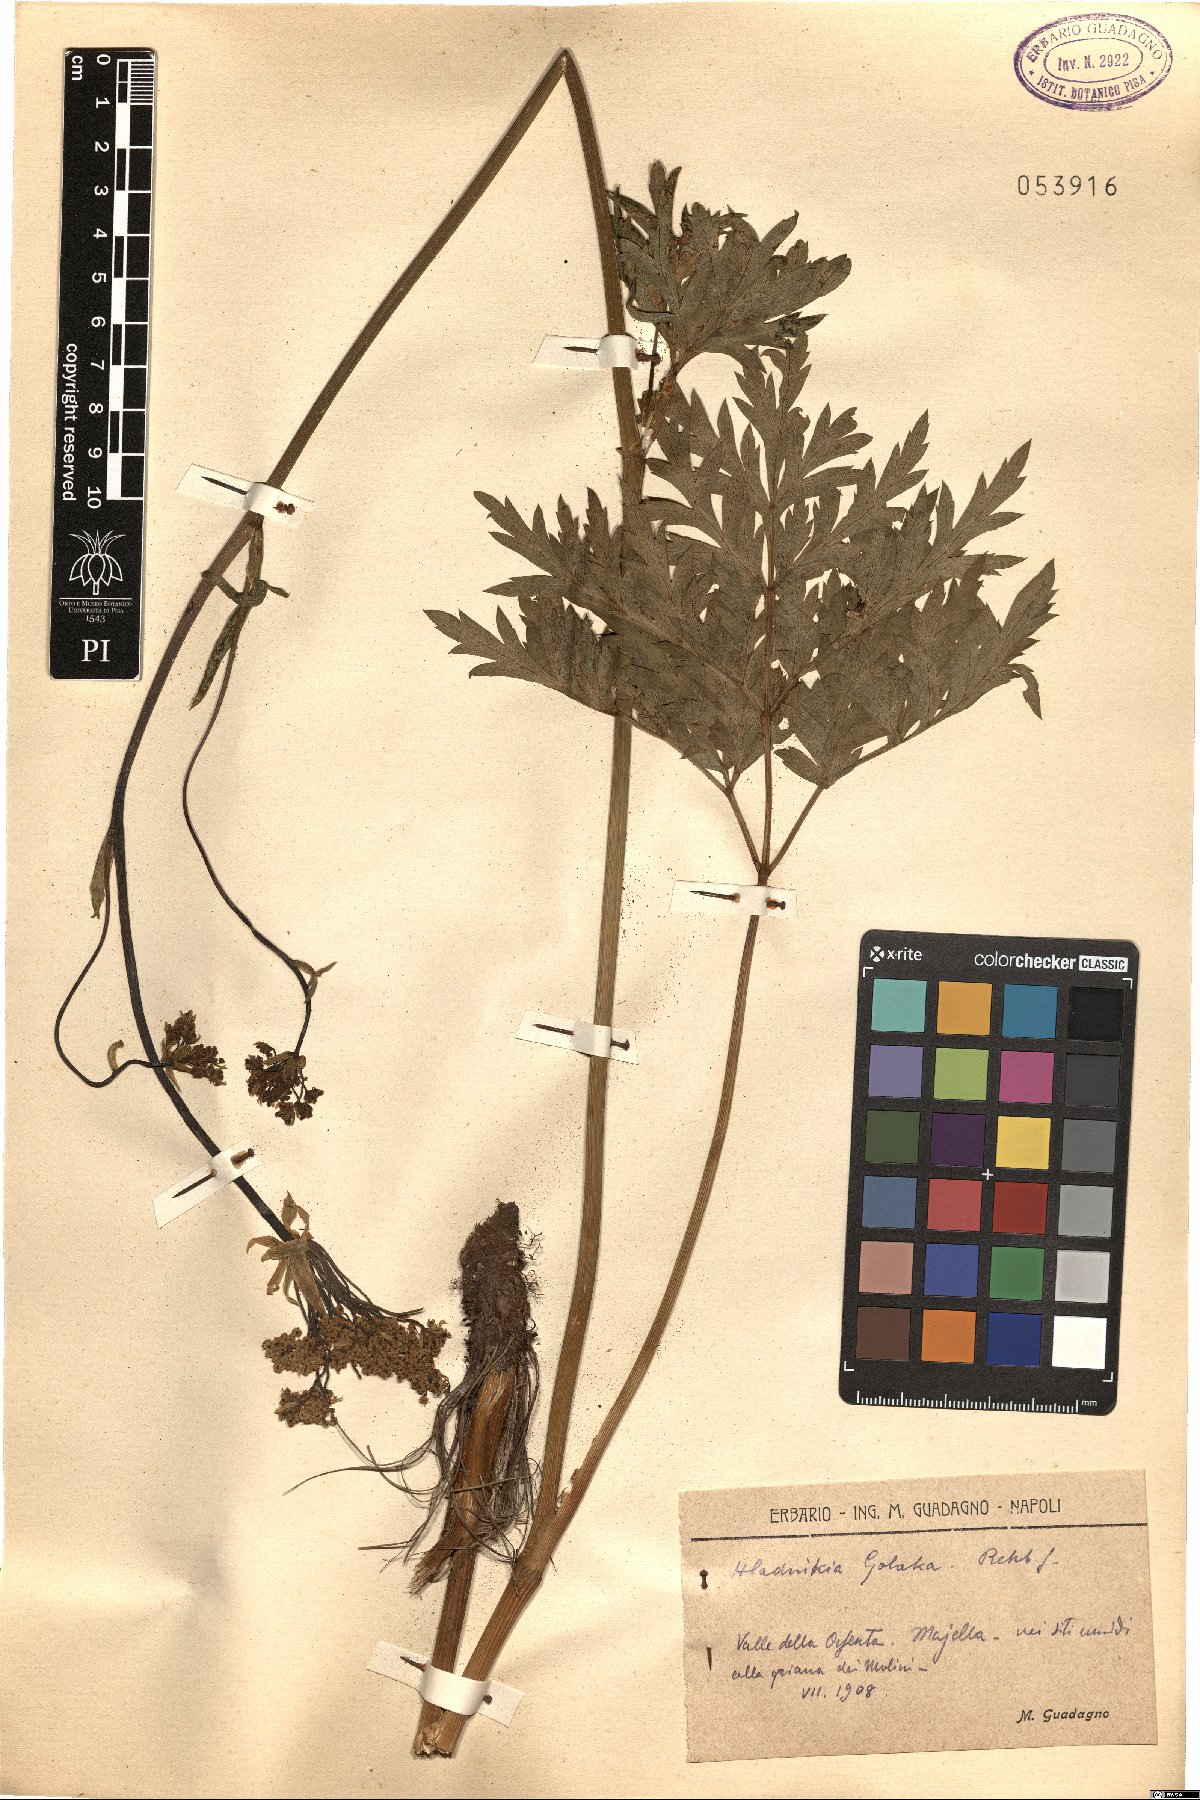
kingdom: Plantae
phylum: Tracheophyta
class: Magnoliopsida
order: Apiales
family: Apiaceae
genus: Grafia
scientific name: Grafia golaka
